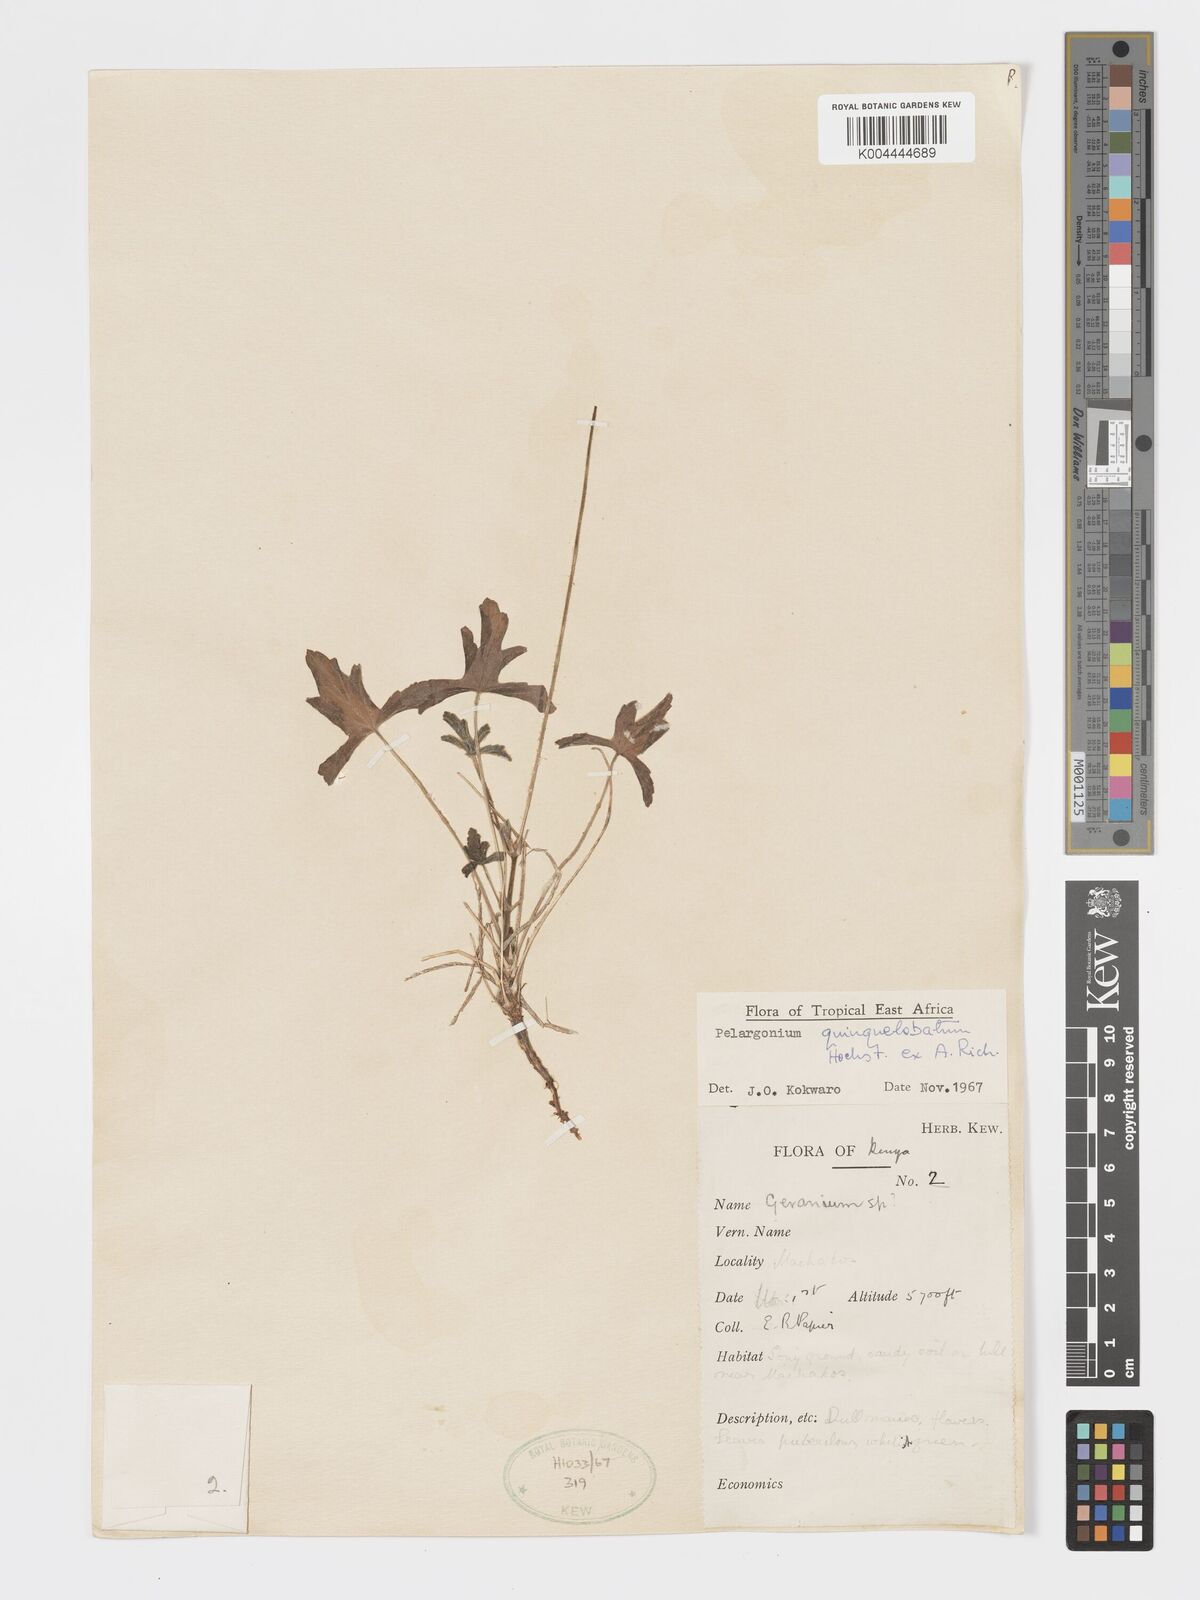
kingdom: Plantae
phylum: Tracheophyta
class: Magnoliopsida
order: Geraniales
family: Geraniaceae
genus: Pelargonium
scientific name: Pelargonium quinquelobatum
